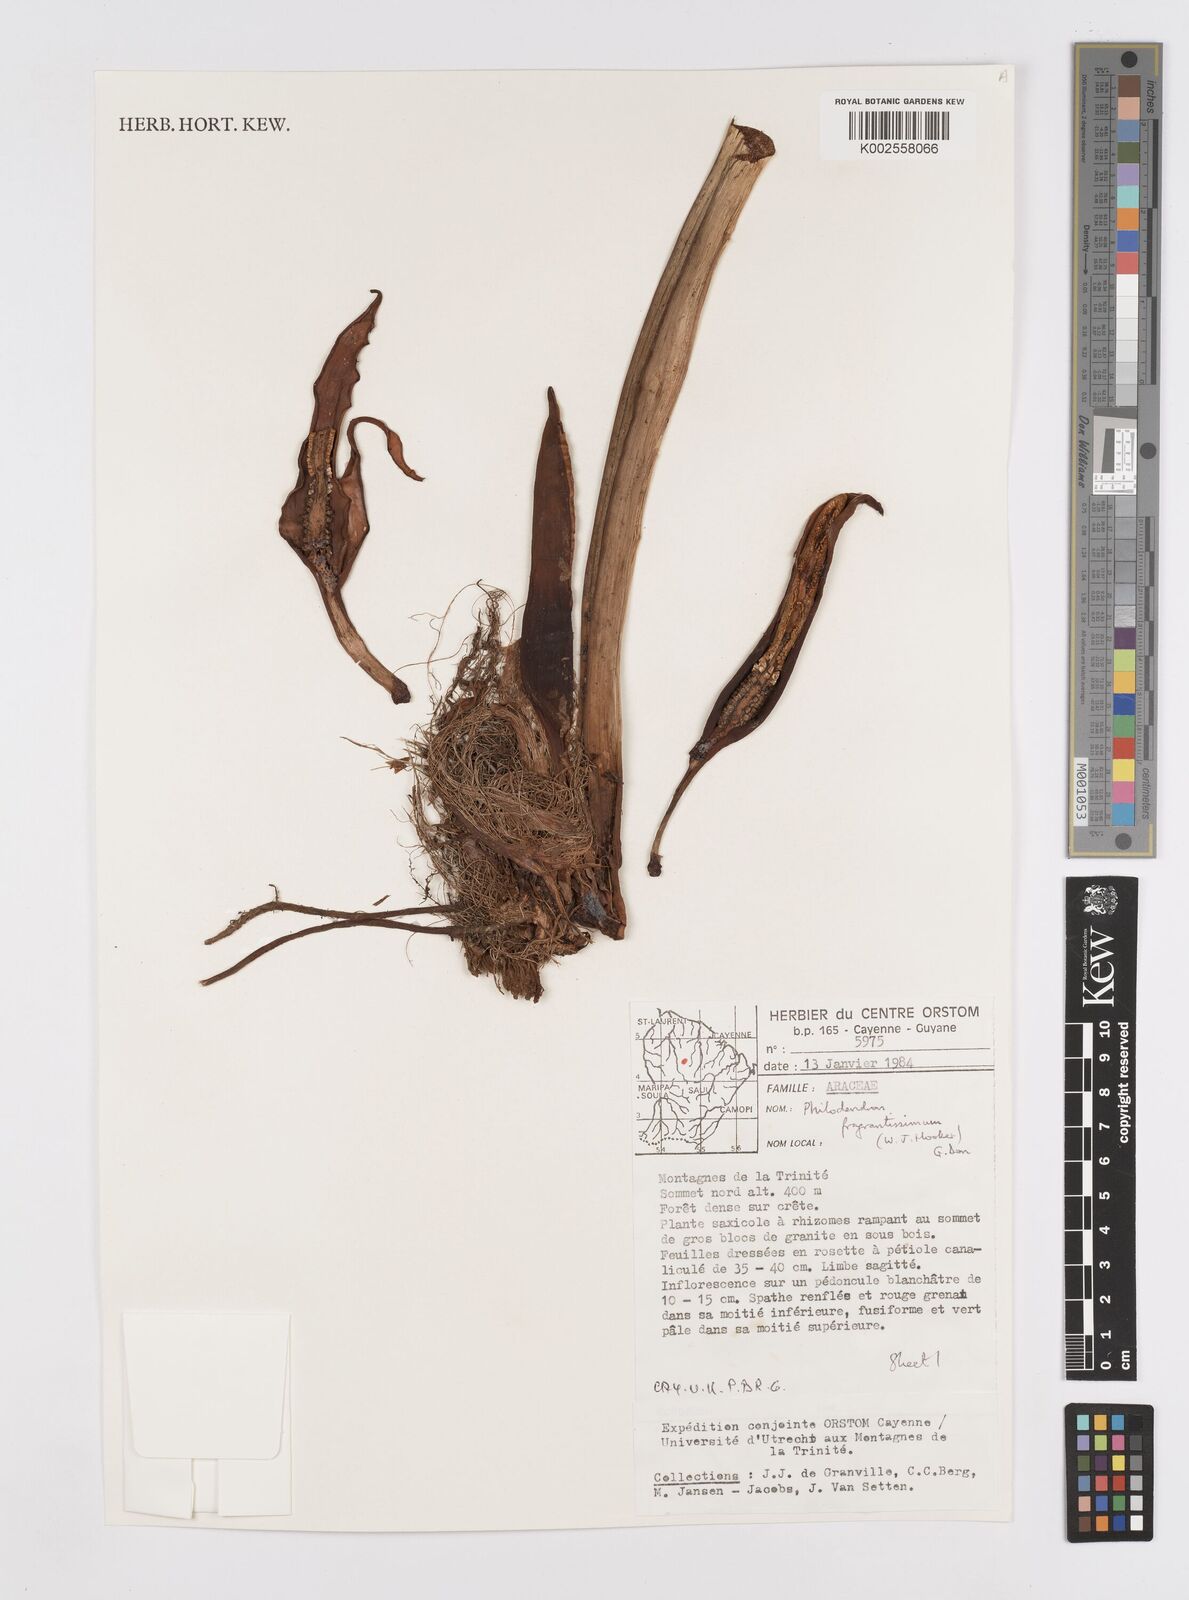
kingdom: Plantae
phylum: Tracheophyta
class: Liliopsida
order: Alismatales
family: Araceae
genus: Philodendron
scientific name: Philodendron fragrantissimum
